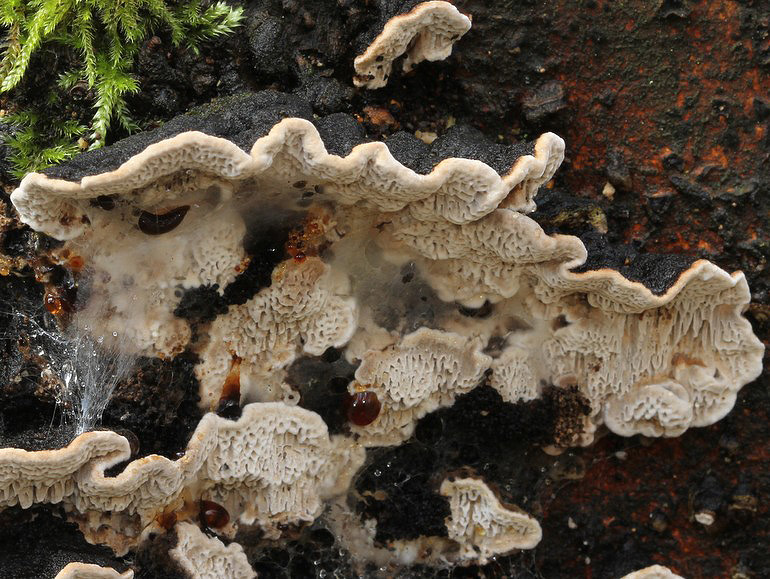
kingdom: Fungi
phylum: Basidiomycota
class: Agaricomycetes
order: Polyporales
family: Polyporaceae
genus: Podofomes
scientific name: Podofomes mollis
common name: blød begporesvamp
